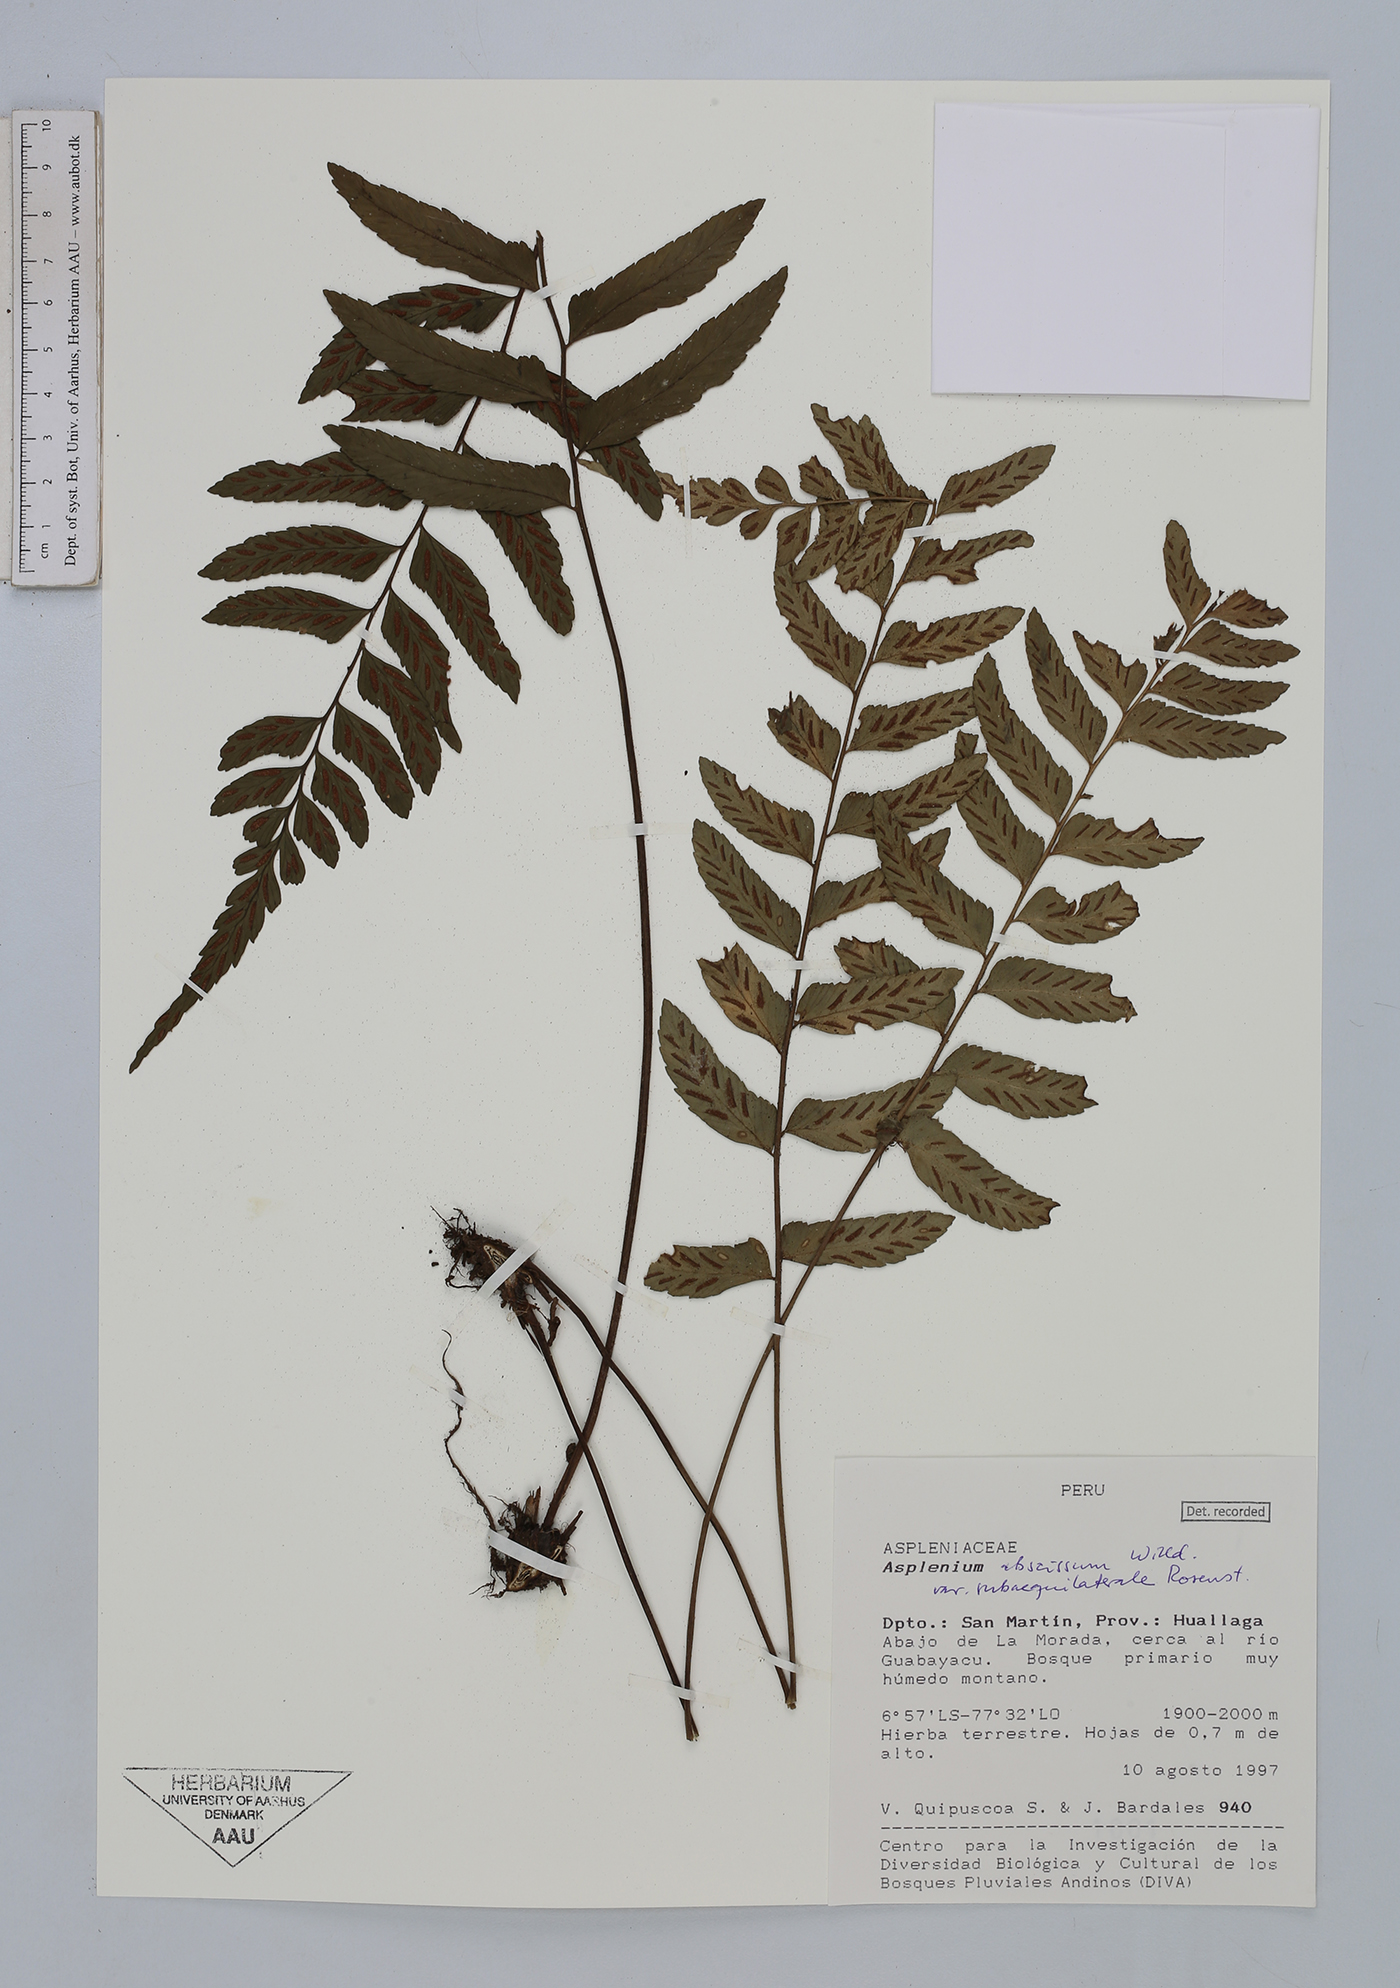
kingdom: Plantae
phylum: Tracheophyta
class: Polypodiopsida
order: Polypodiales
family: Aspleniaceae
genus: Asplenium
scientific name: Asplenium abscissum
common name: Cutleaf spleenwort
